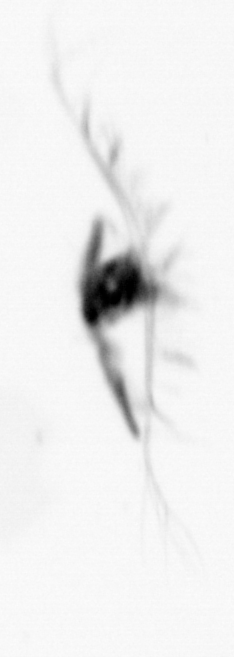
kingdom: Animalia
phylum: Arthropoda
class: Copepoda
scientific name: Copepoda
